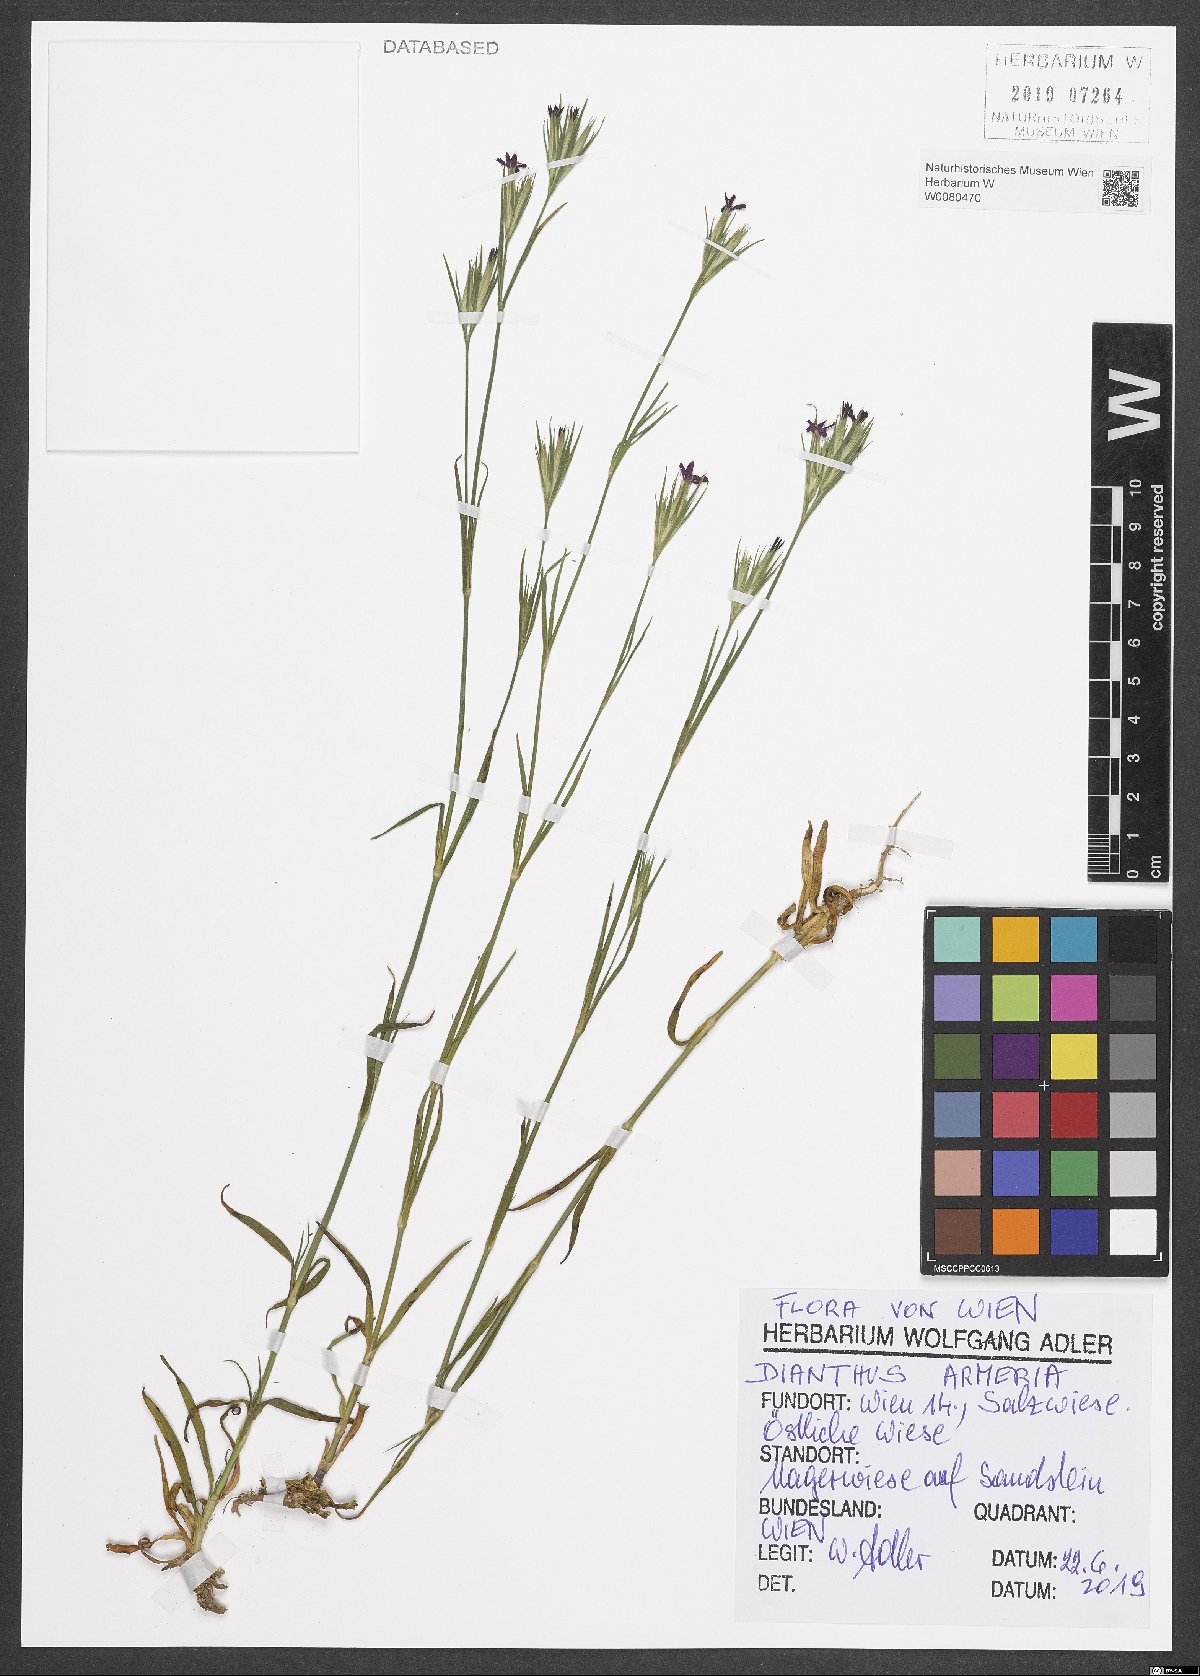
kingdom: Plantae
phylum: Tracheophyta
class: Magnoliopsida
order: Caryophyllales
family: Caryophyllaceae
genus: Dianthus
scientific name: Dianthus armeria
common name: Deptford pink
